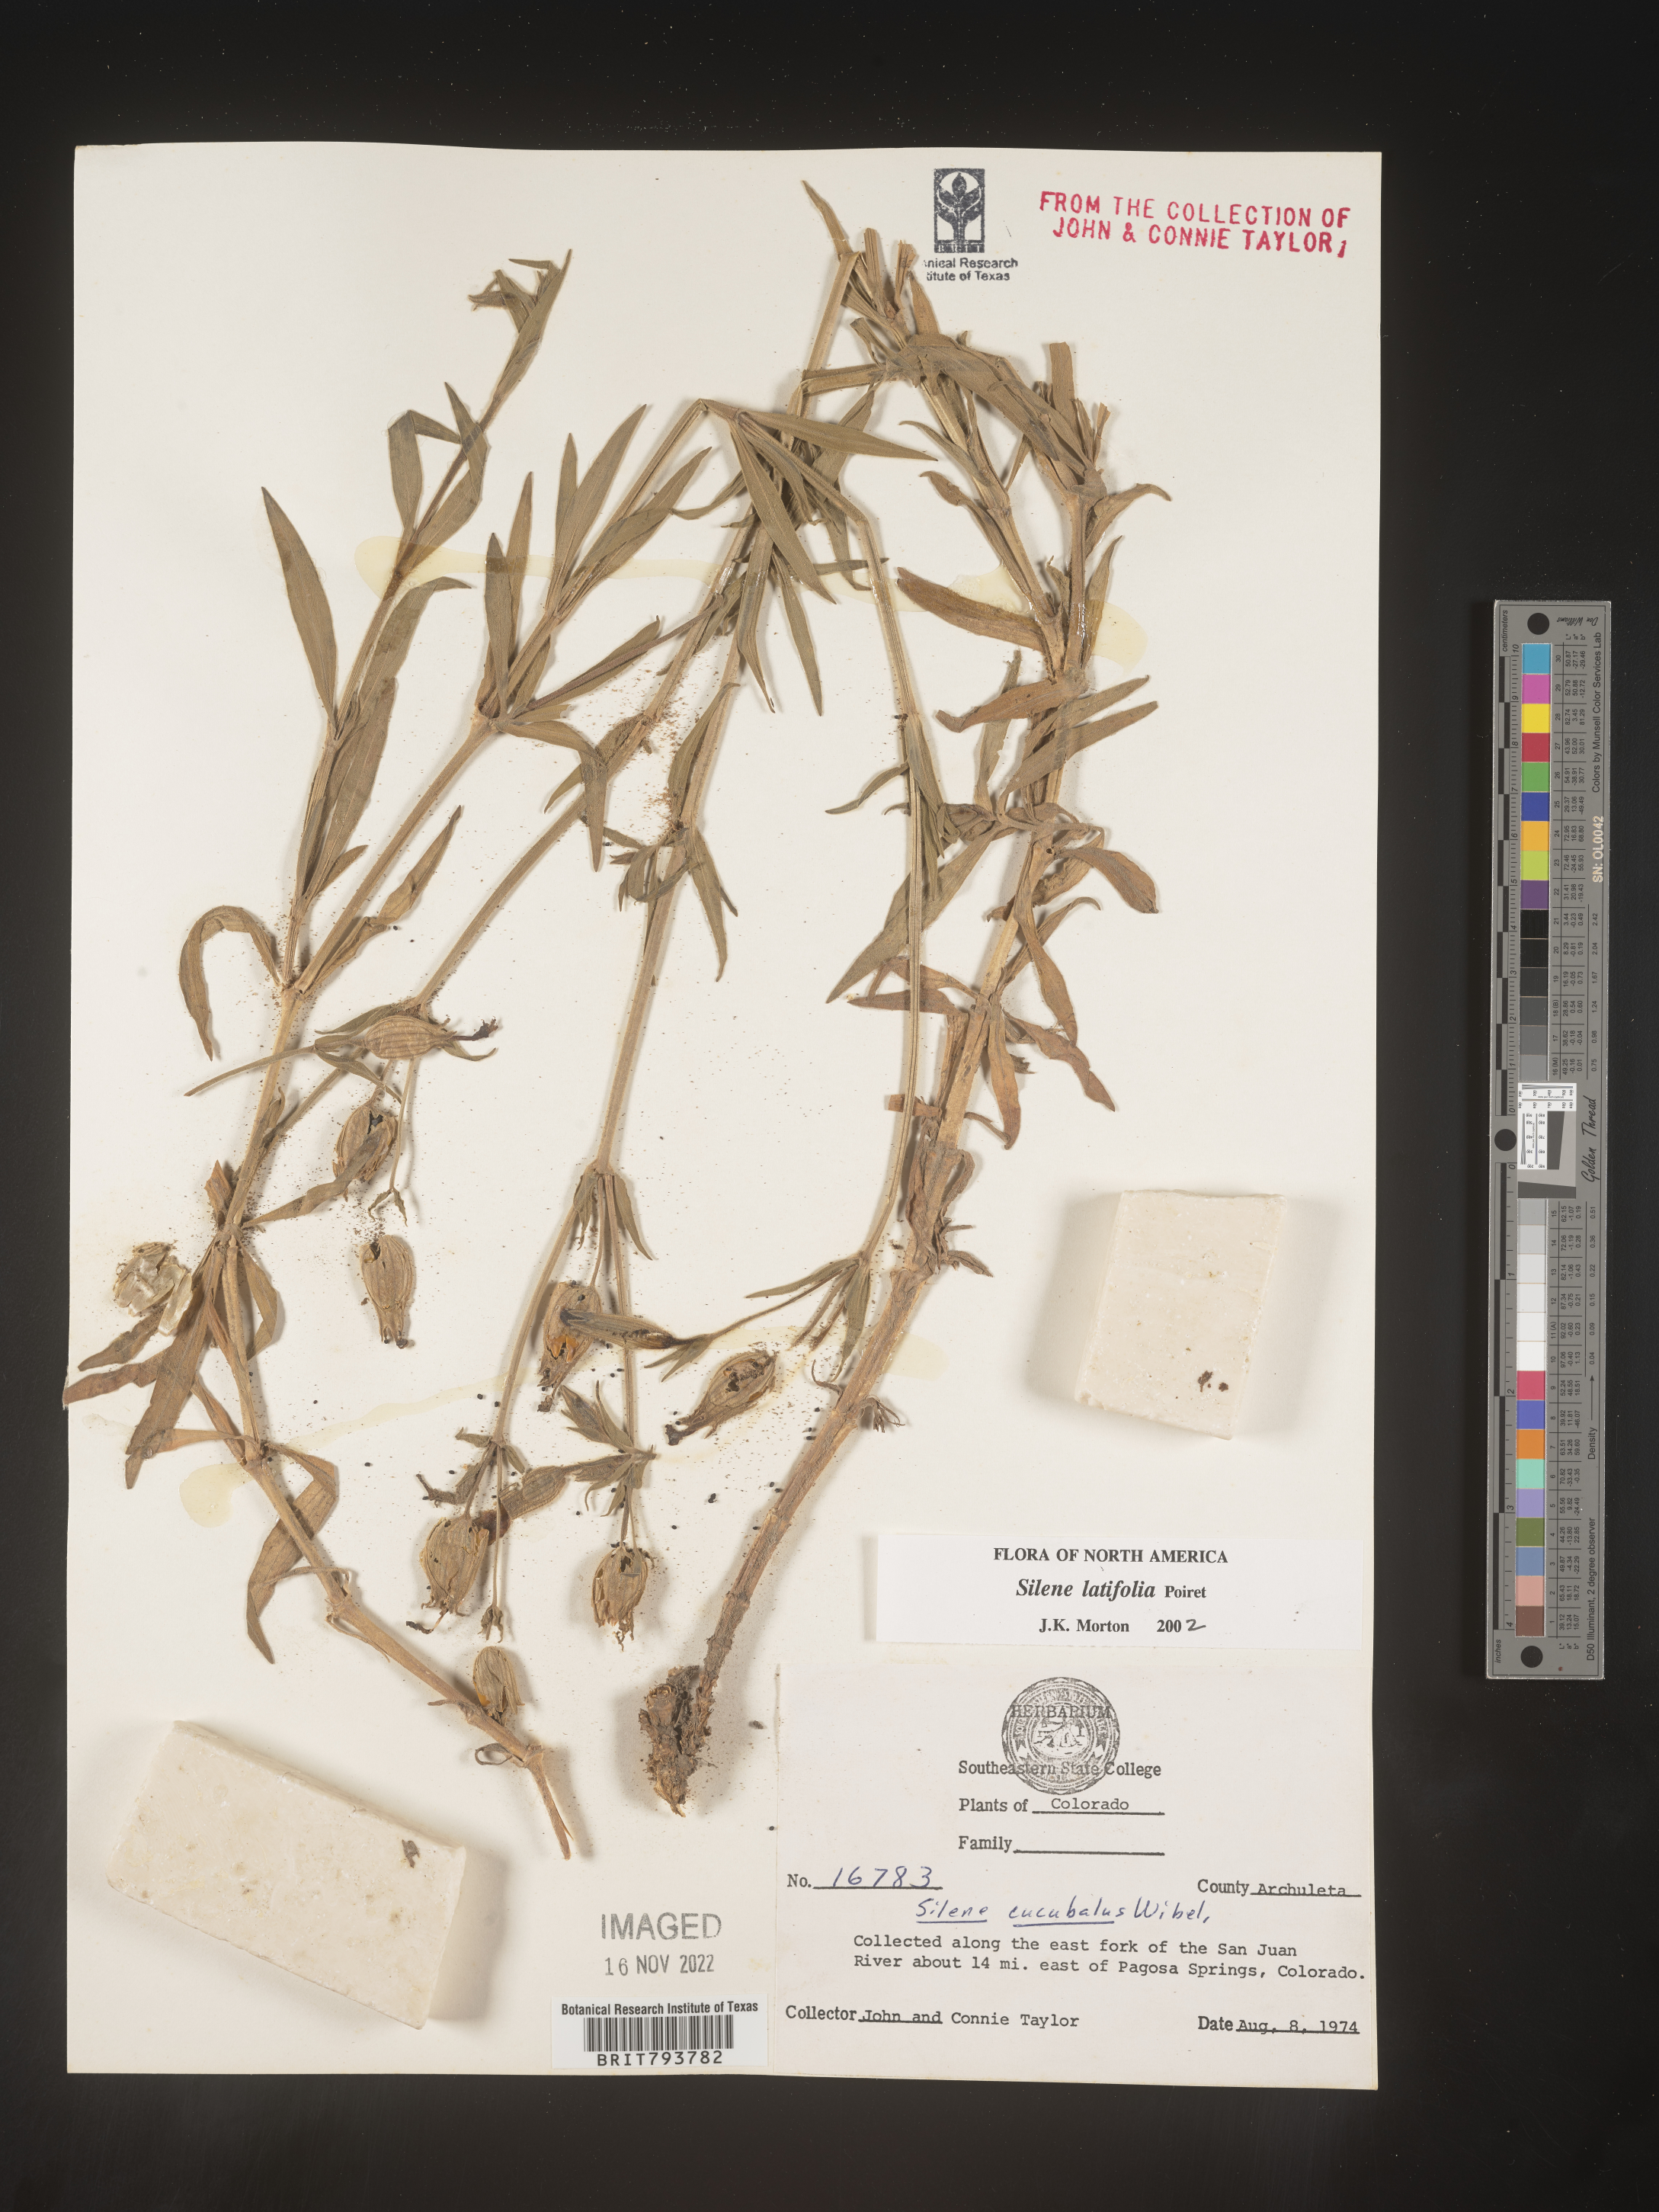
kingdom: Plantae
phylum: Tracheophyta
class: Magnoliopsida
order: Caryophyllales
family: Caryophyllaceae
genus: Silene
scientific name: Silene latifolia
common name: White campion
